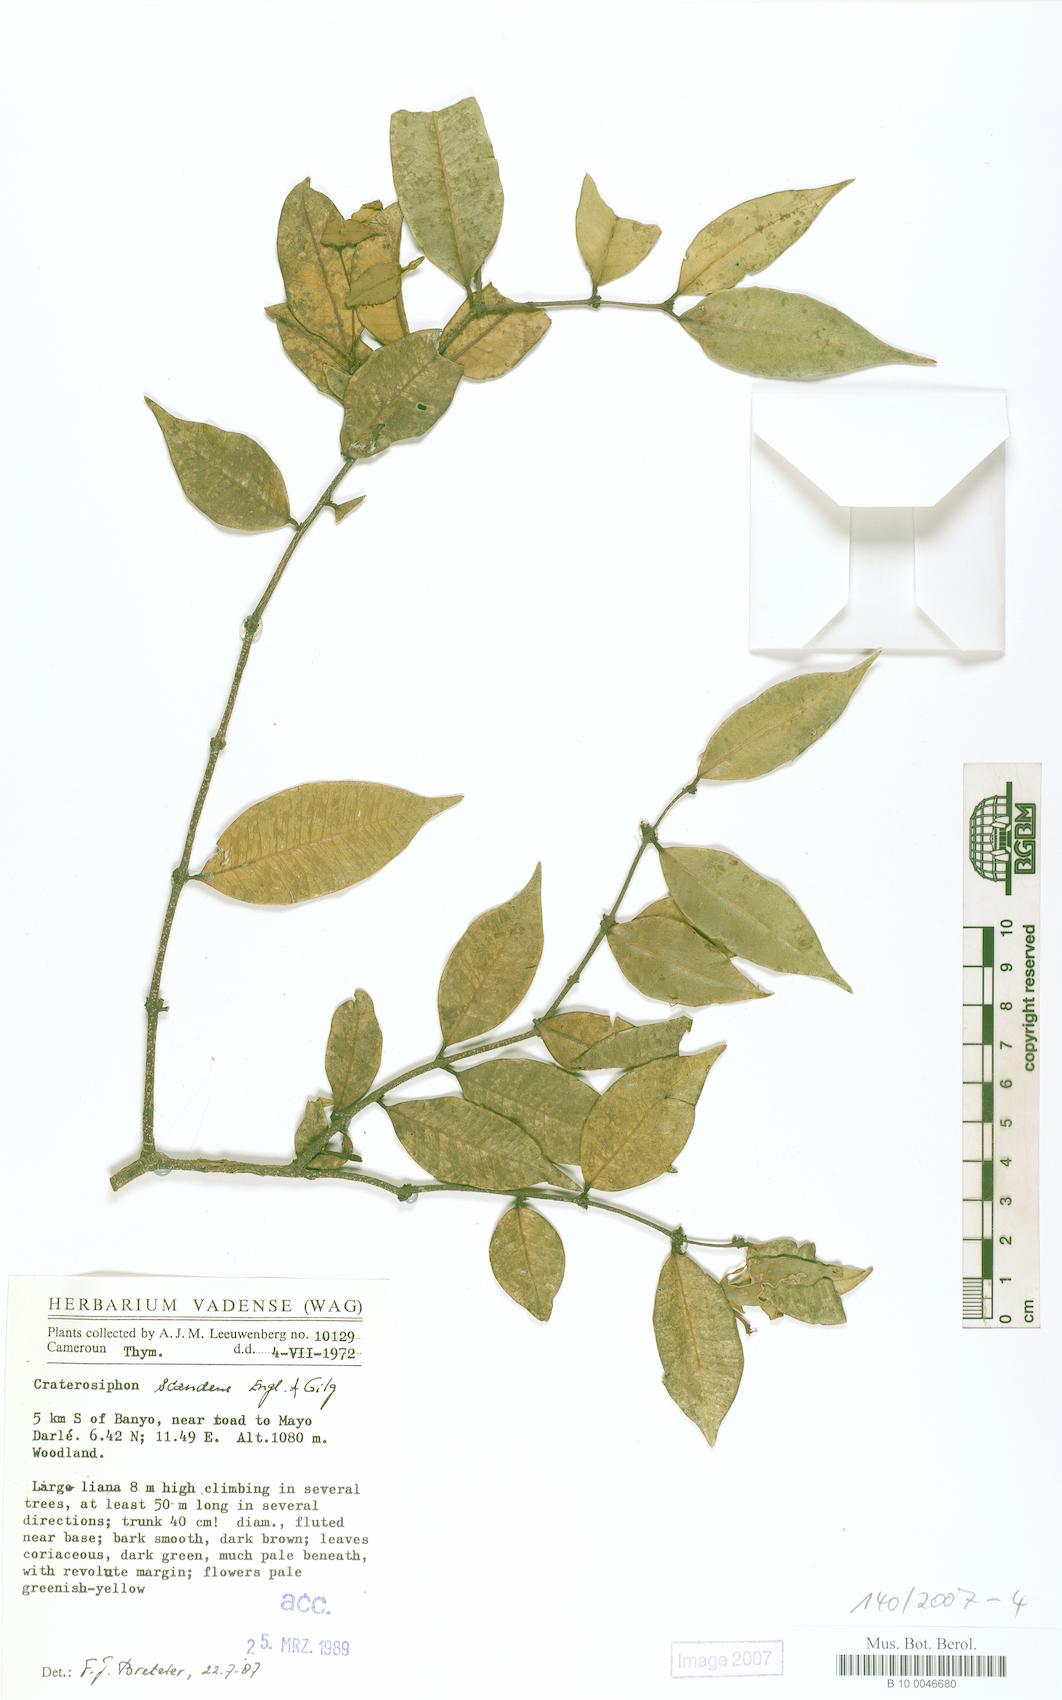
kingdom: Plantae
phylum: Tracheophyta
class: Magnoliopsida
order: Malvales
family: Thymelaeaceae
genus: Craterosiphon
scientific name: Craterosiphon scandens
